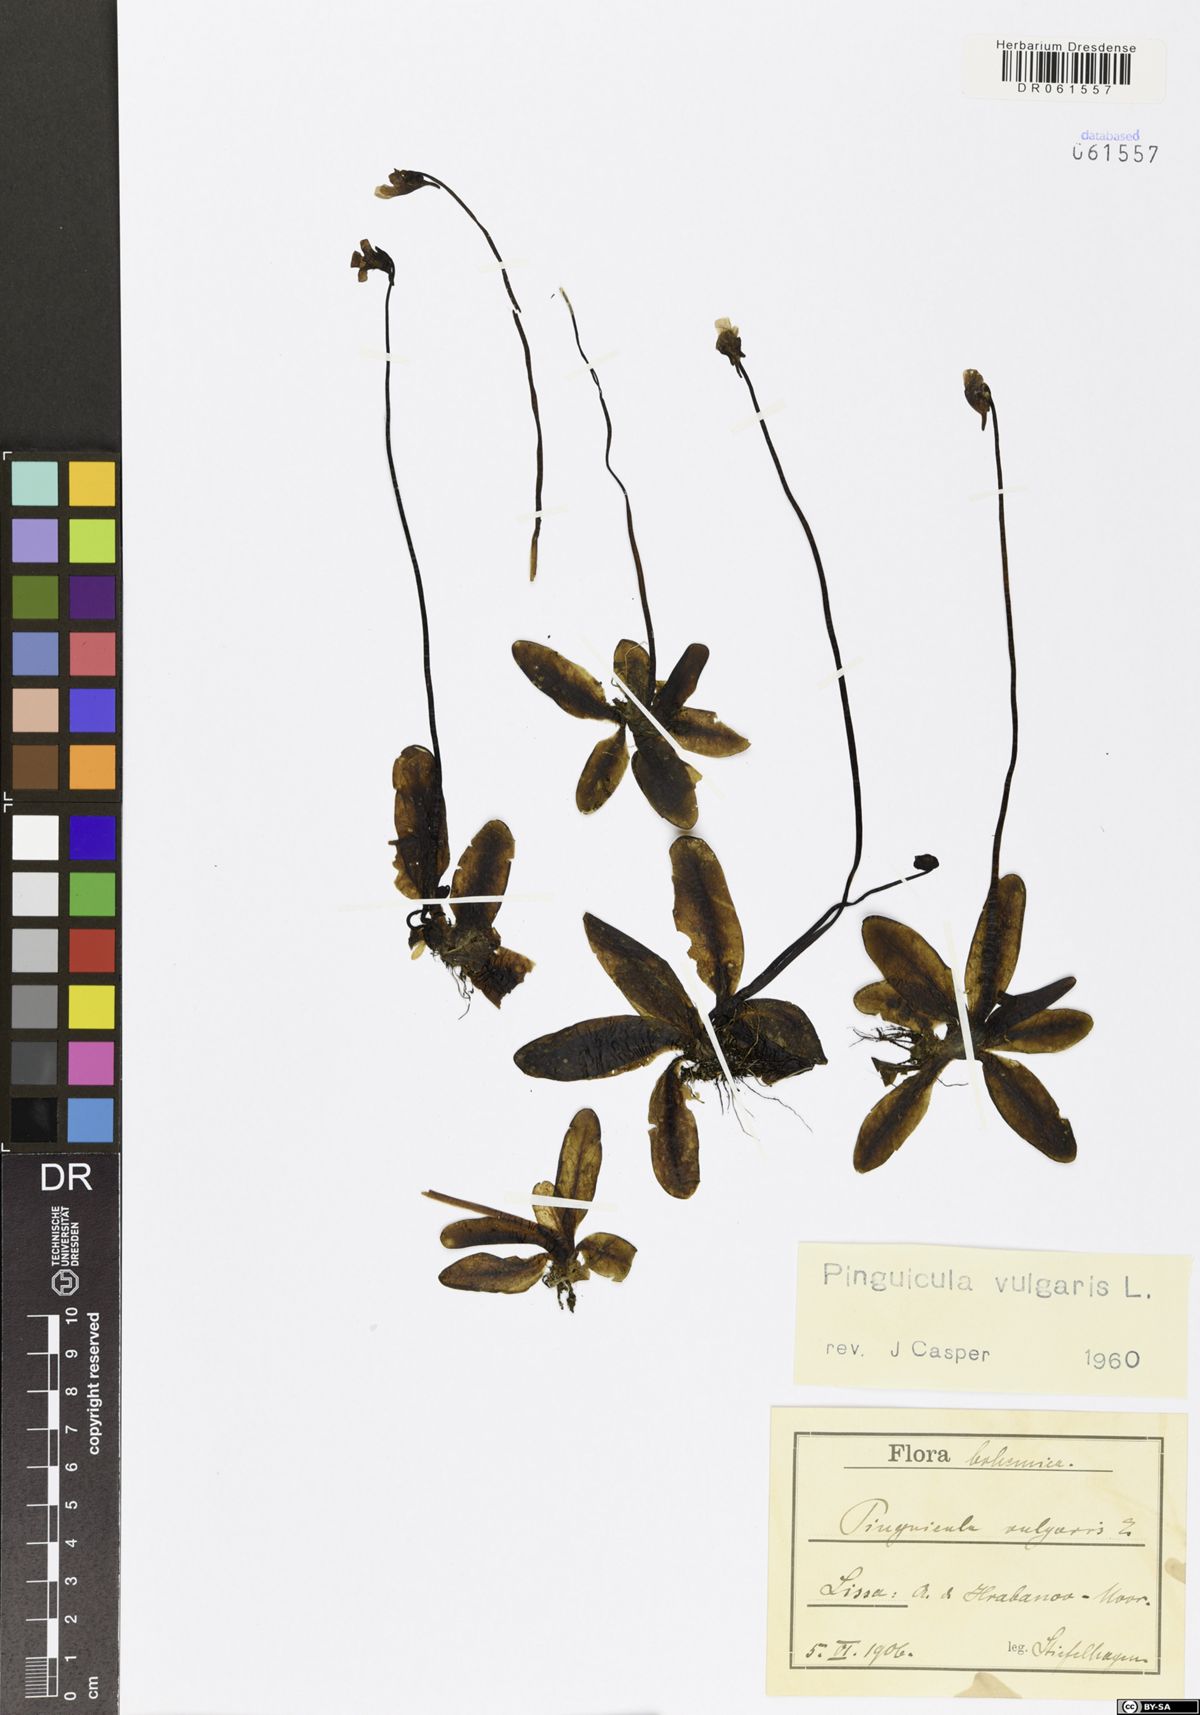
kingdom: Plantae
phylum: Tracheophyta
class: Magnoliopsida
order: Lamiales
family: Lentibulariaceae
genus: Pinguicula
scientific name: Pinguicula vulgaris
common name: Common butterwort
